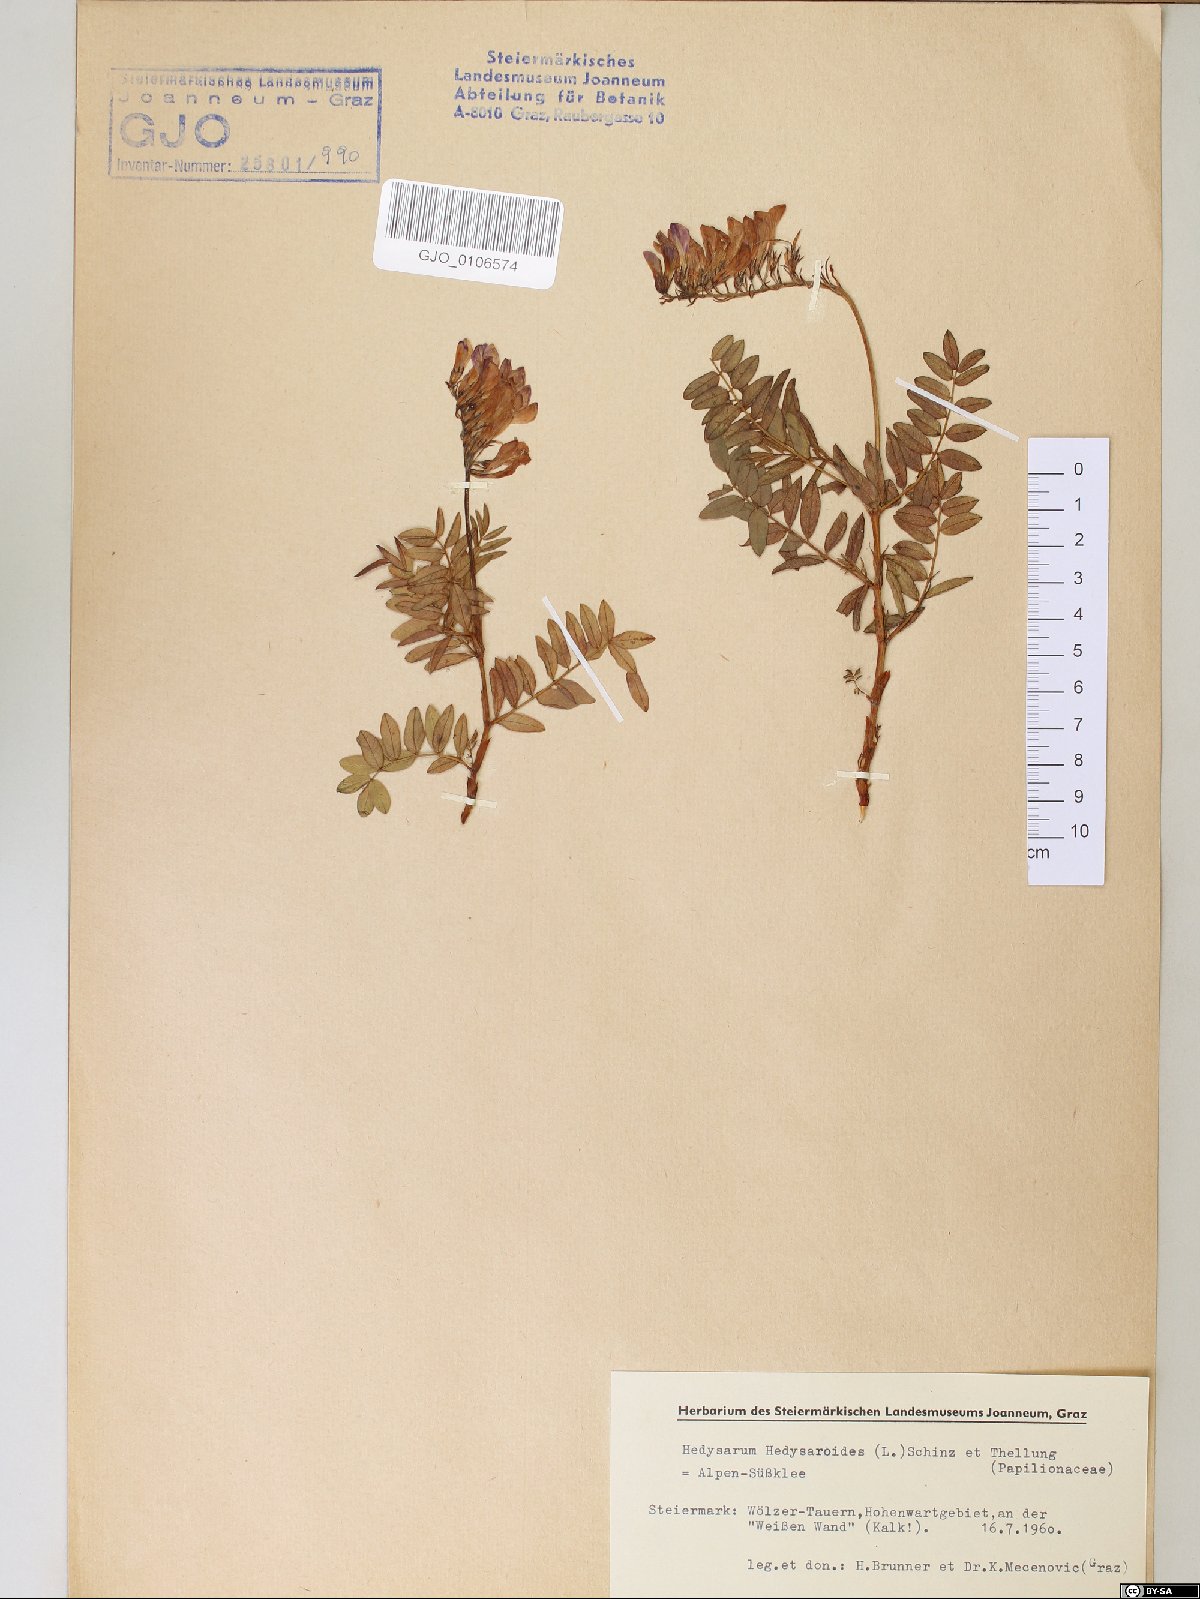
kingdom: Plantae
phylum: Tracheophyta
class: Magnoliopsida
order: Fabales
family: Fabaceae
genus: Hedysarum
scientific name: Hedysarum hedysaroides
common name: Alpine french-honeysuckle
